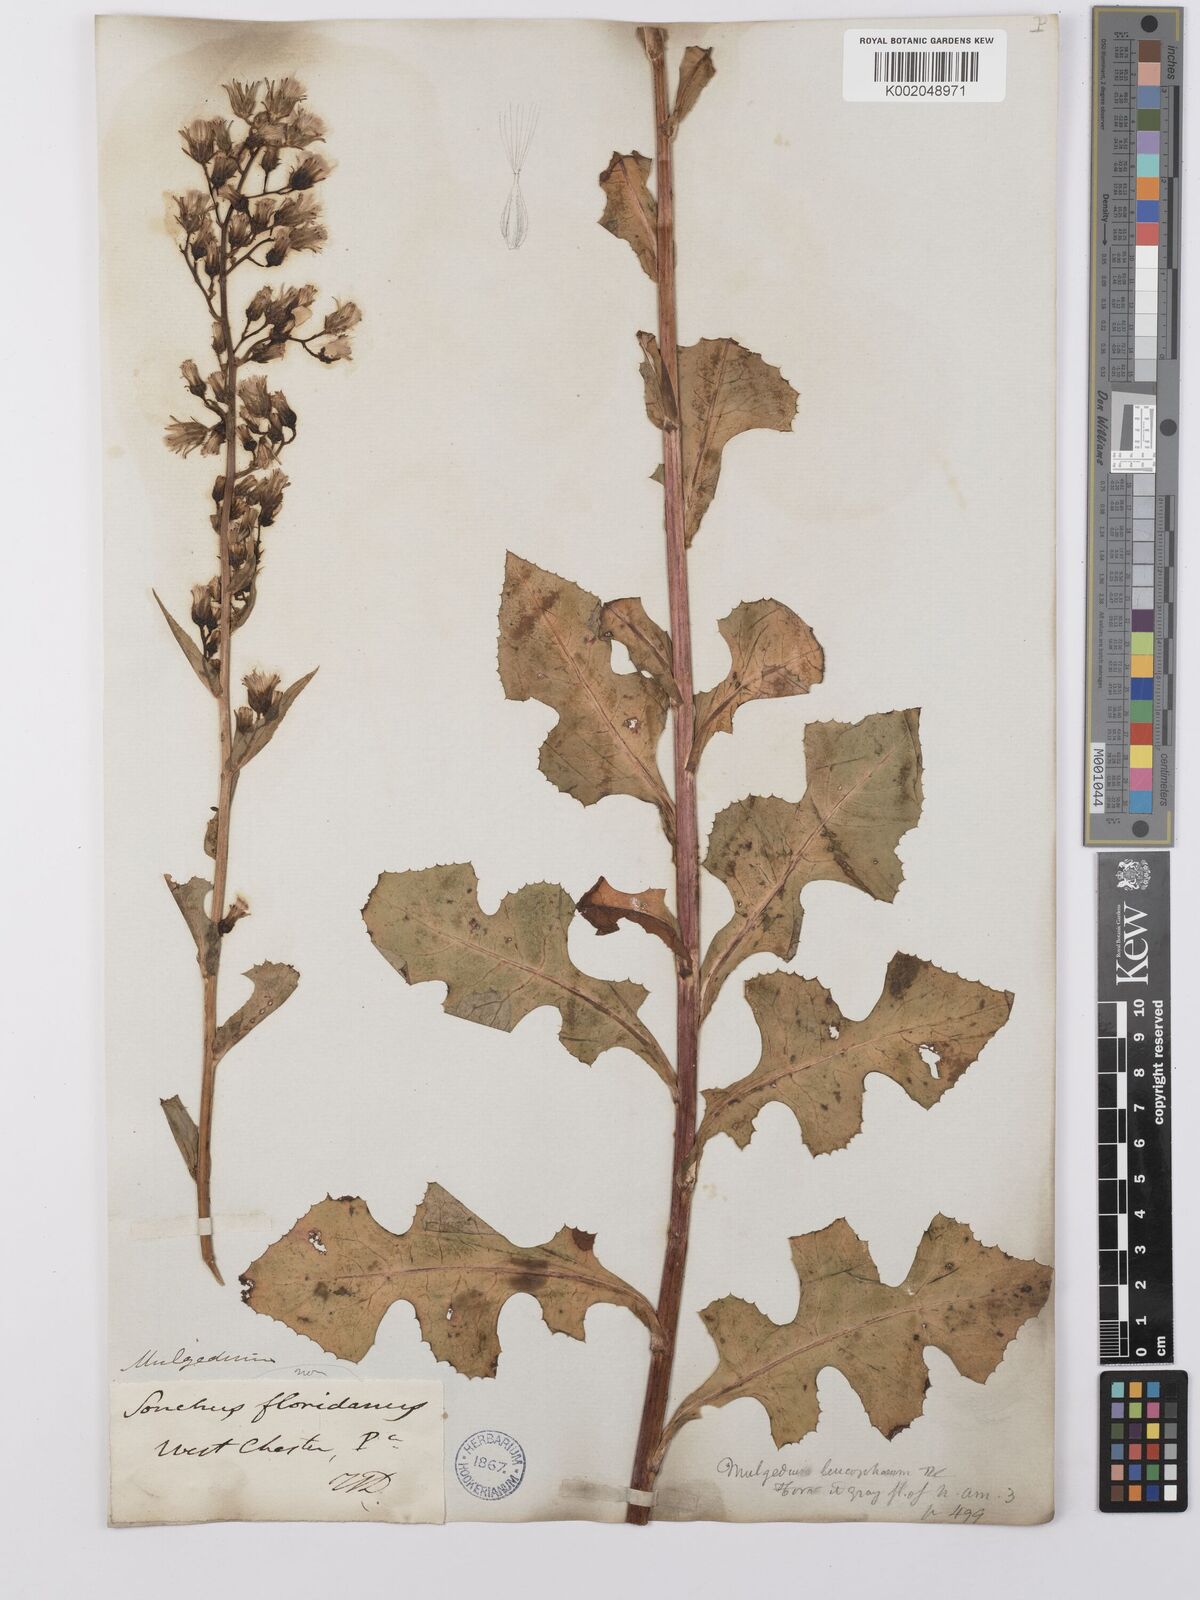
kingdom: Plantae
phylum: Tracheophyta
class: Magnoliopsida
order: Asterales
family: Asteraceae
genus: Lactuca
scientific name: Lactuca
